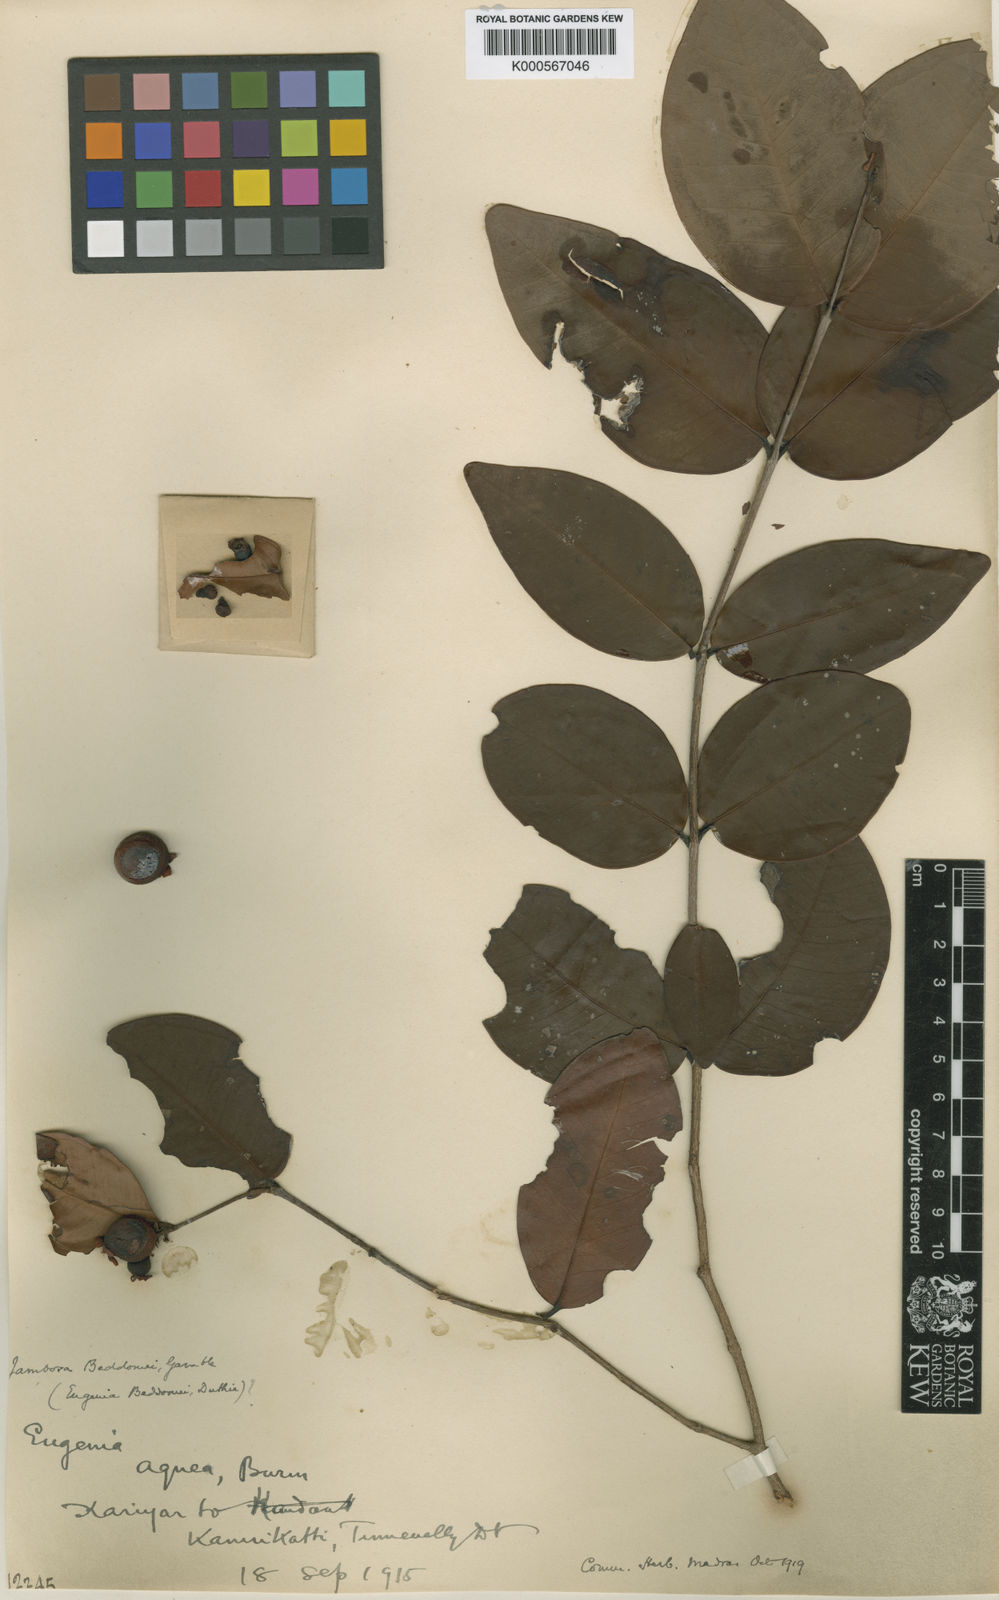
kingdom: Plantae
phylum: Tracheophyta
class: Magnoliopsida
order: Myrtales
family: Myrtaceae
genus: Syzygium
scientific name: Syzygium beddomei
